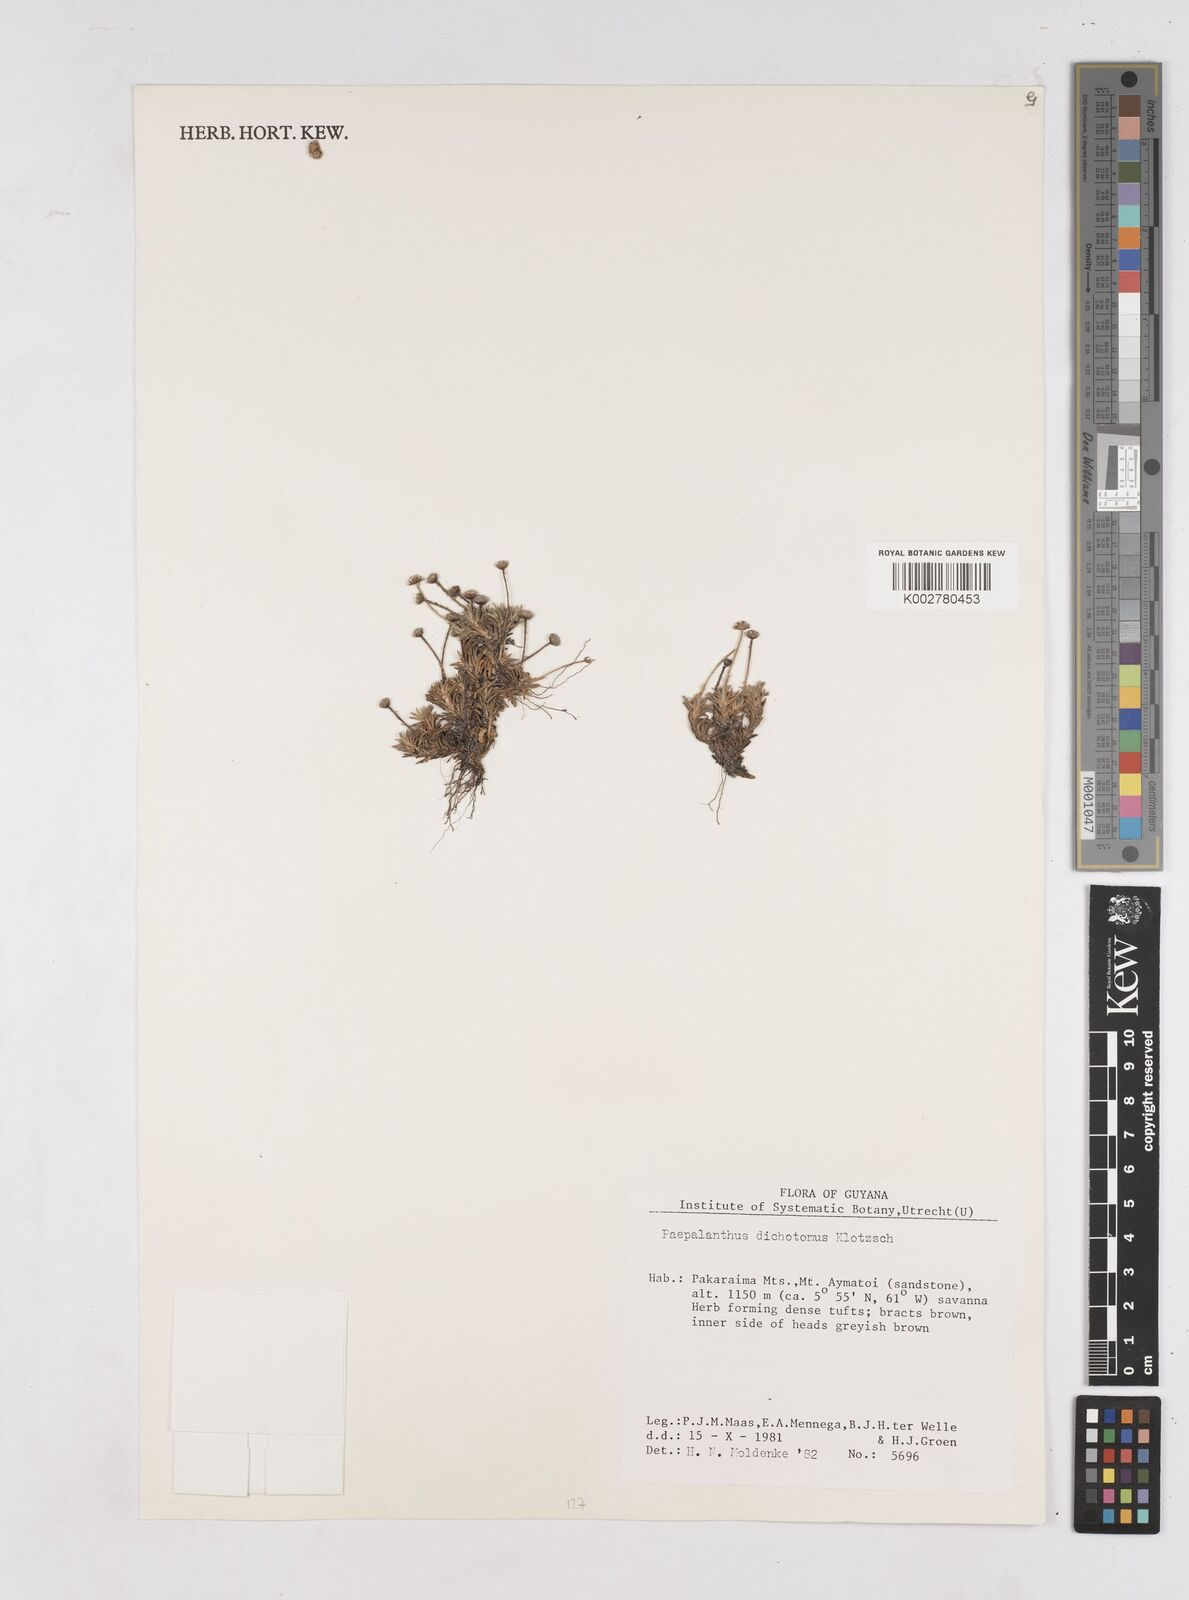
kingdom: Plantae
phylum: Tracheophyta
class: Liliopsida
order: Poales
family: Eriocaulaceae
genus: Paepalanthus
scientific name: Paepalanthus dichotomus
